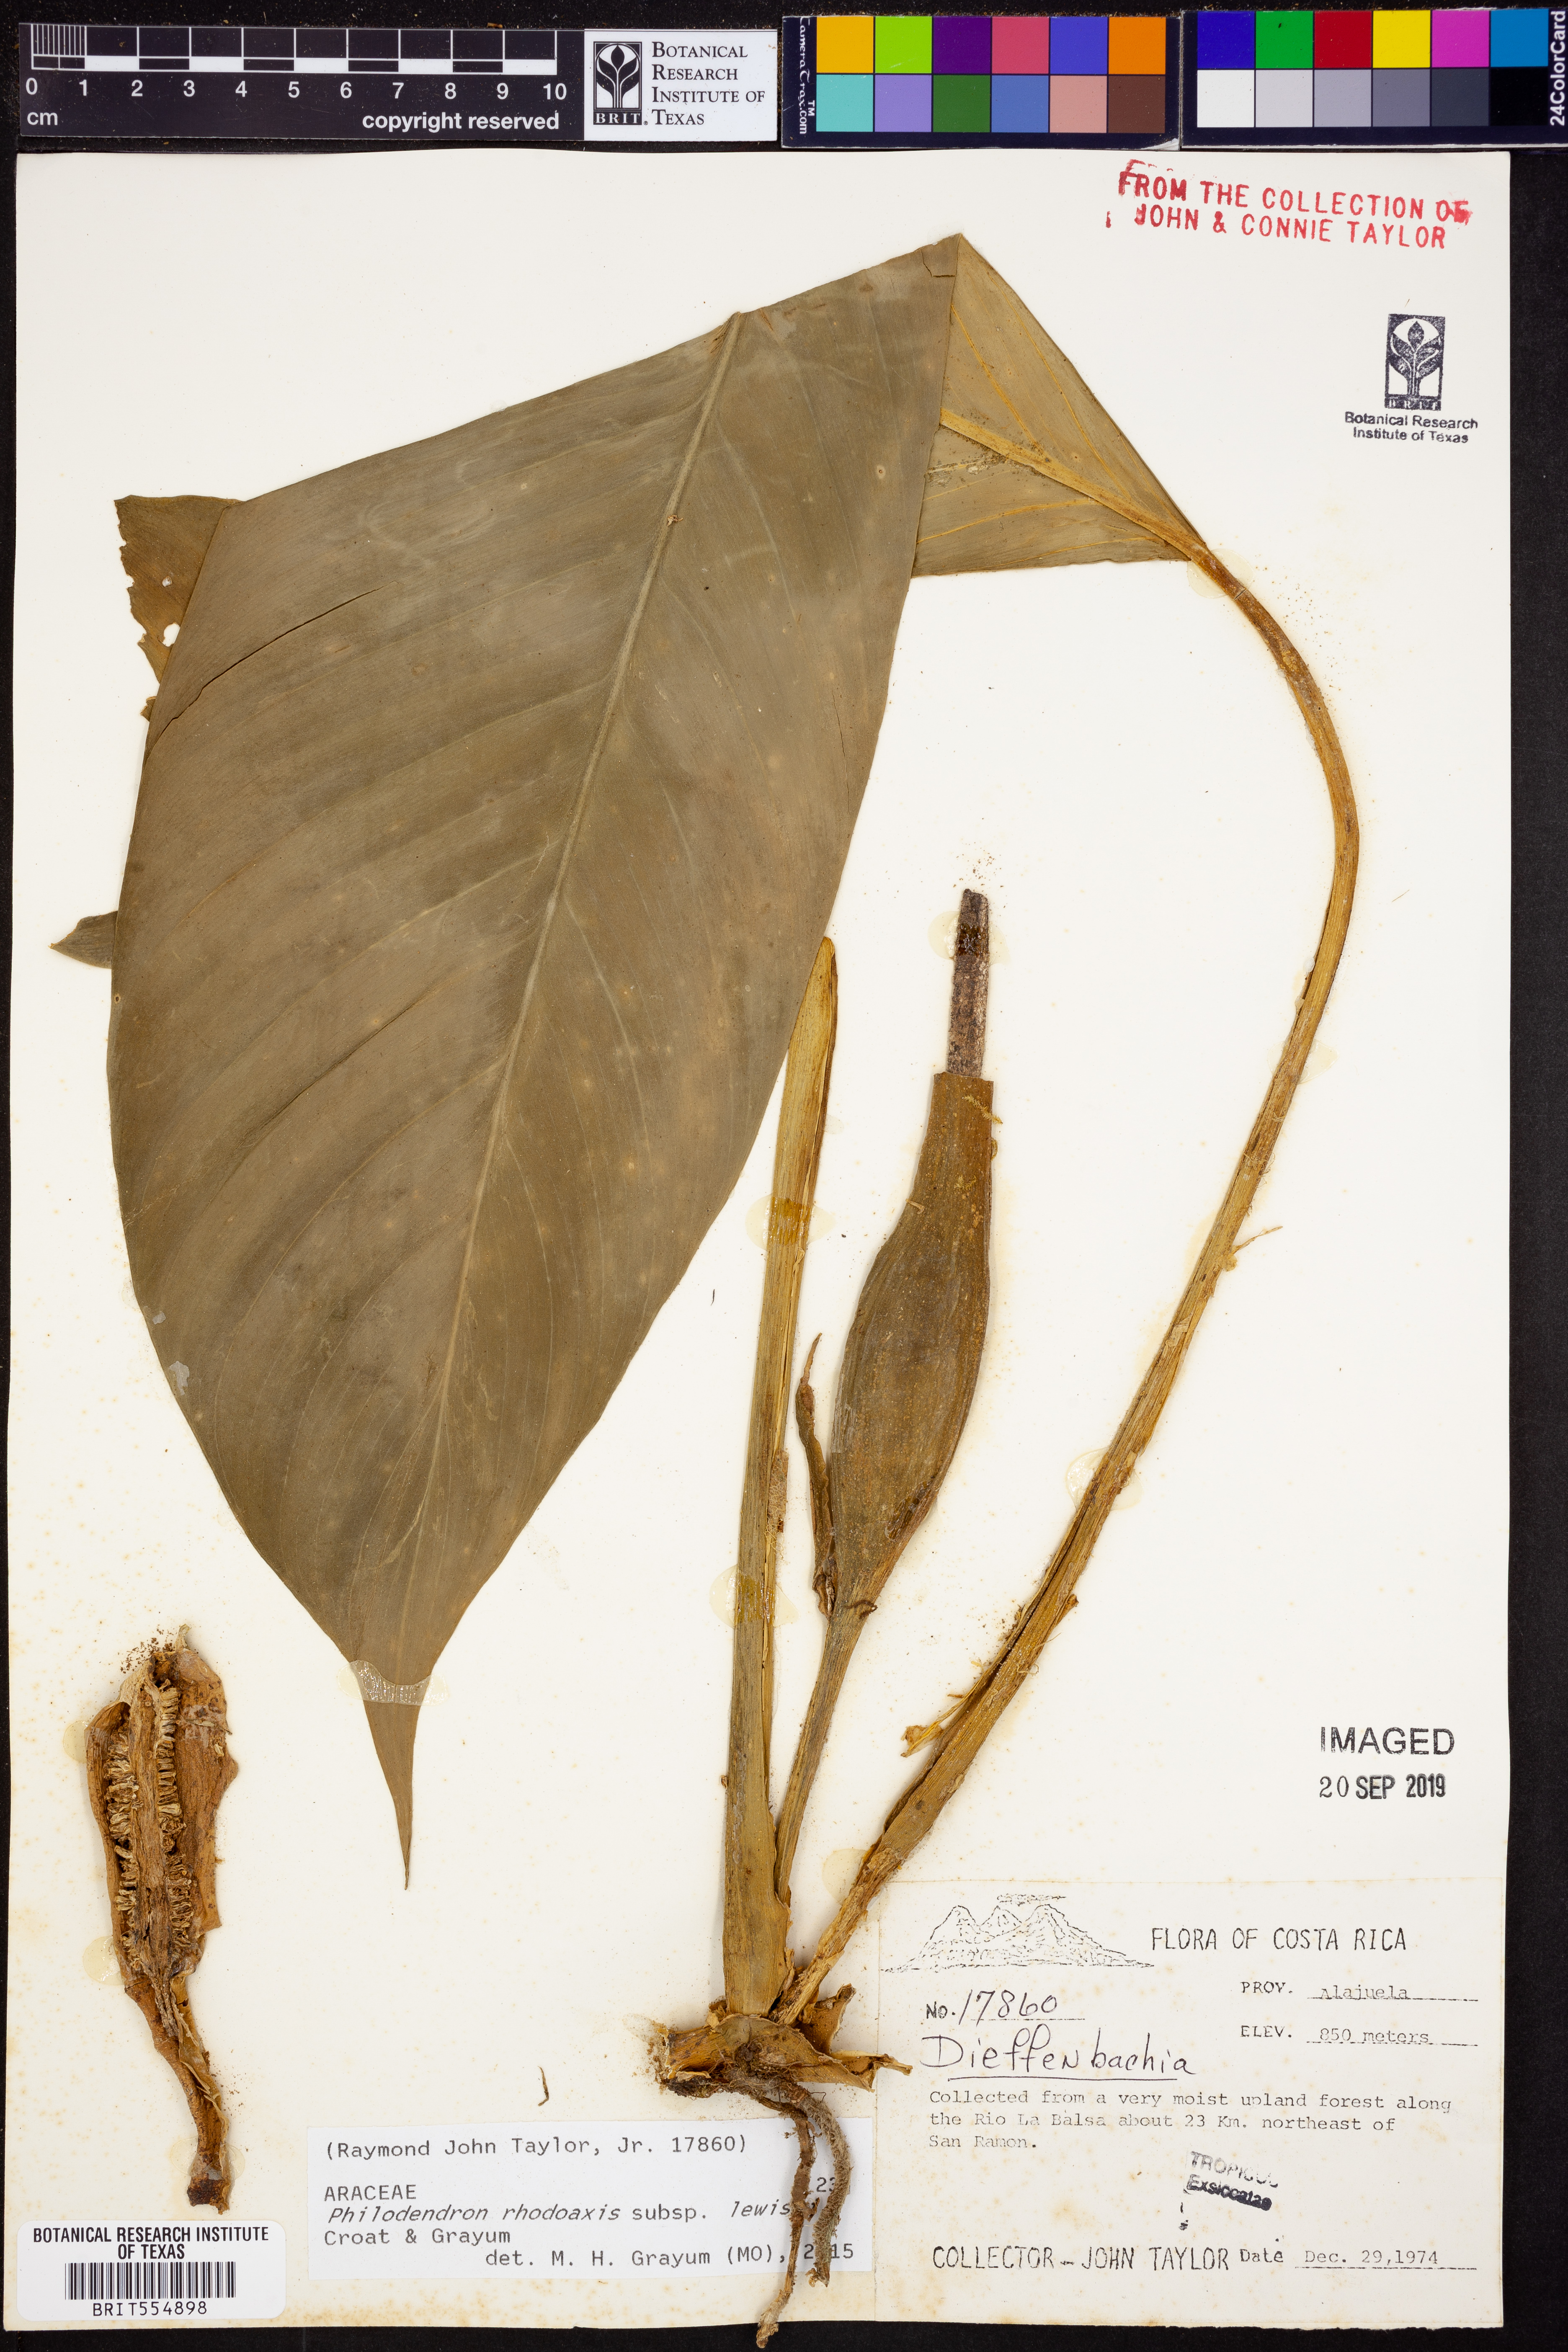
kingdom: Plantae
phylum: Tracheophyta
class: Liliopsida
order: Alismatales
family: Araceae
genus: Philodendron
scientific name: Philodendron rhodoaxis
